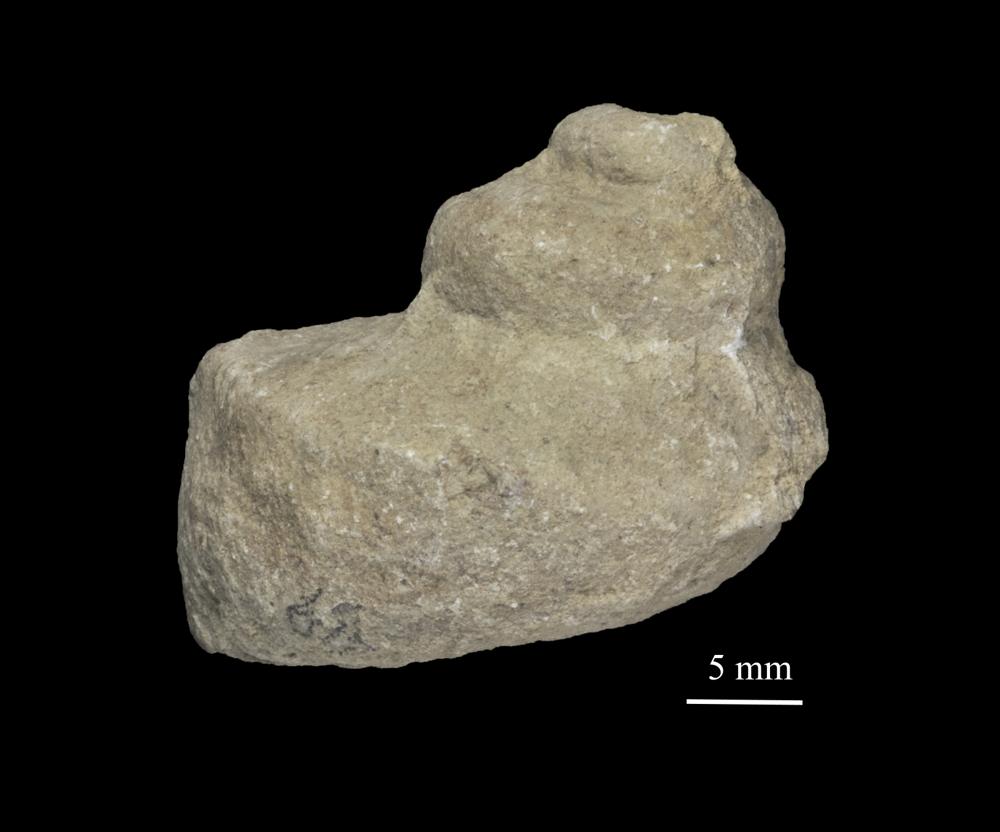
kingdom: Animalia
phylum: Mollusca
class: Gastropoda
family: Lophospiridae
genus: Loxoplocus
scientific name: Loxoplocus Lophospira sedgwicki
